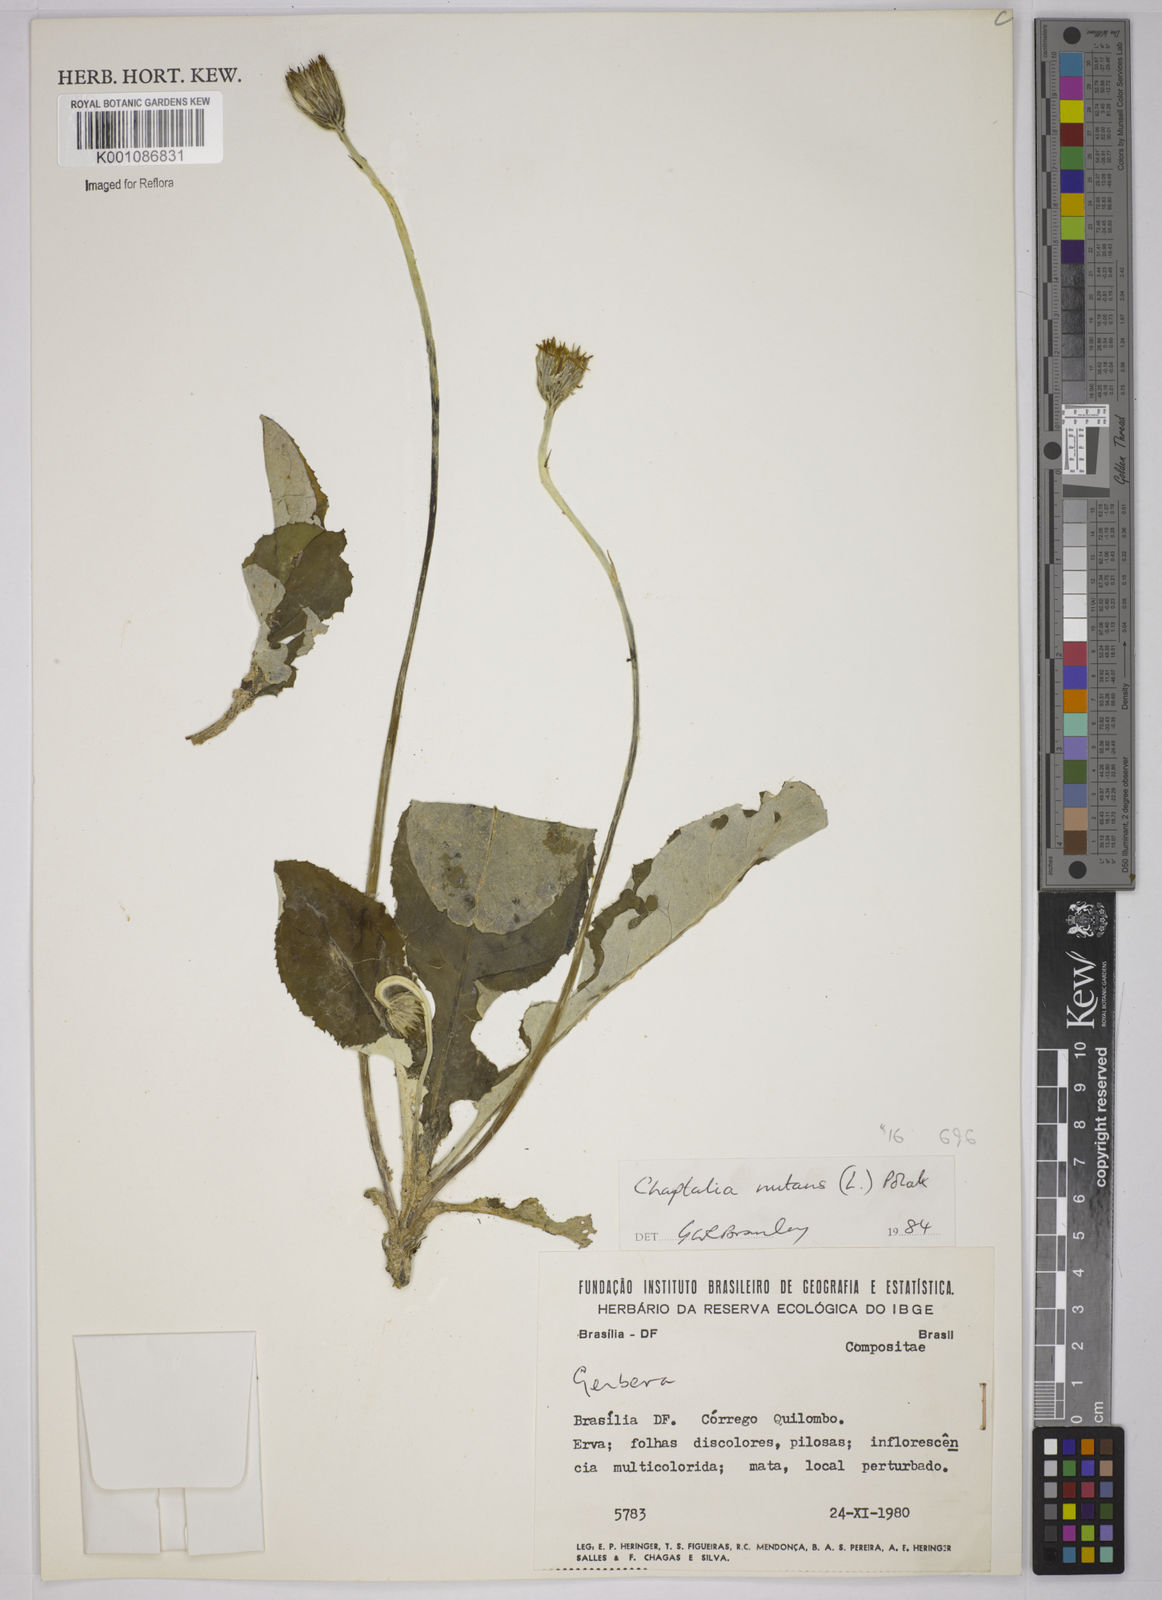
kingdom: Plantae
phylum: Tracheophyta
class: Magnoliopsida
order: Asterales
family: Asteraceae
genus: Chaptalia
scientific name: Chaptalia nutans
